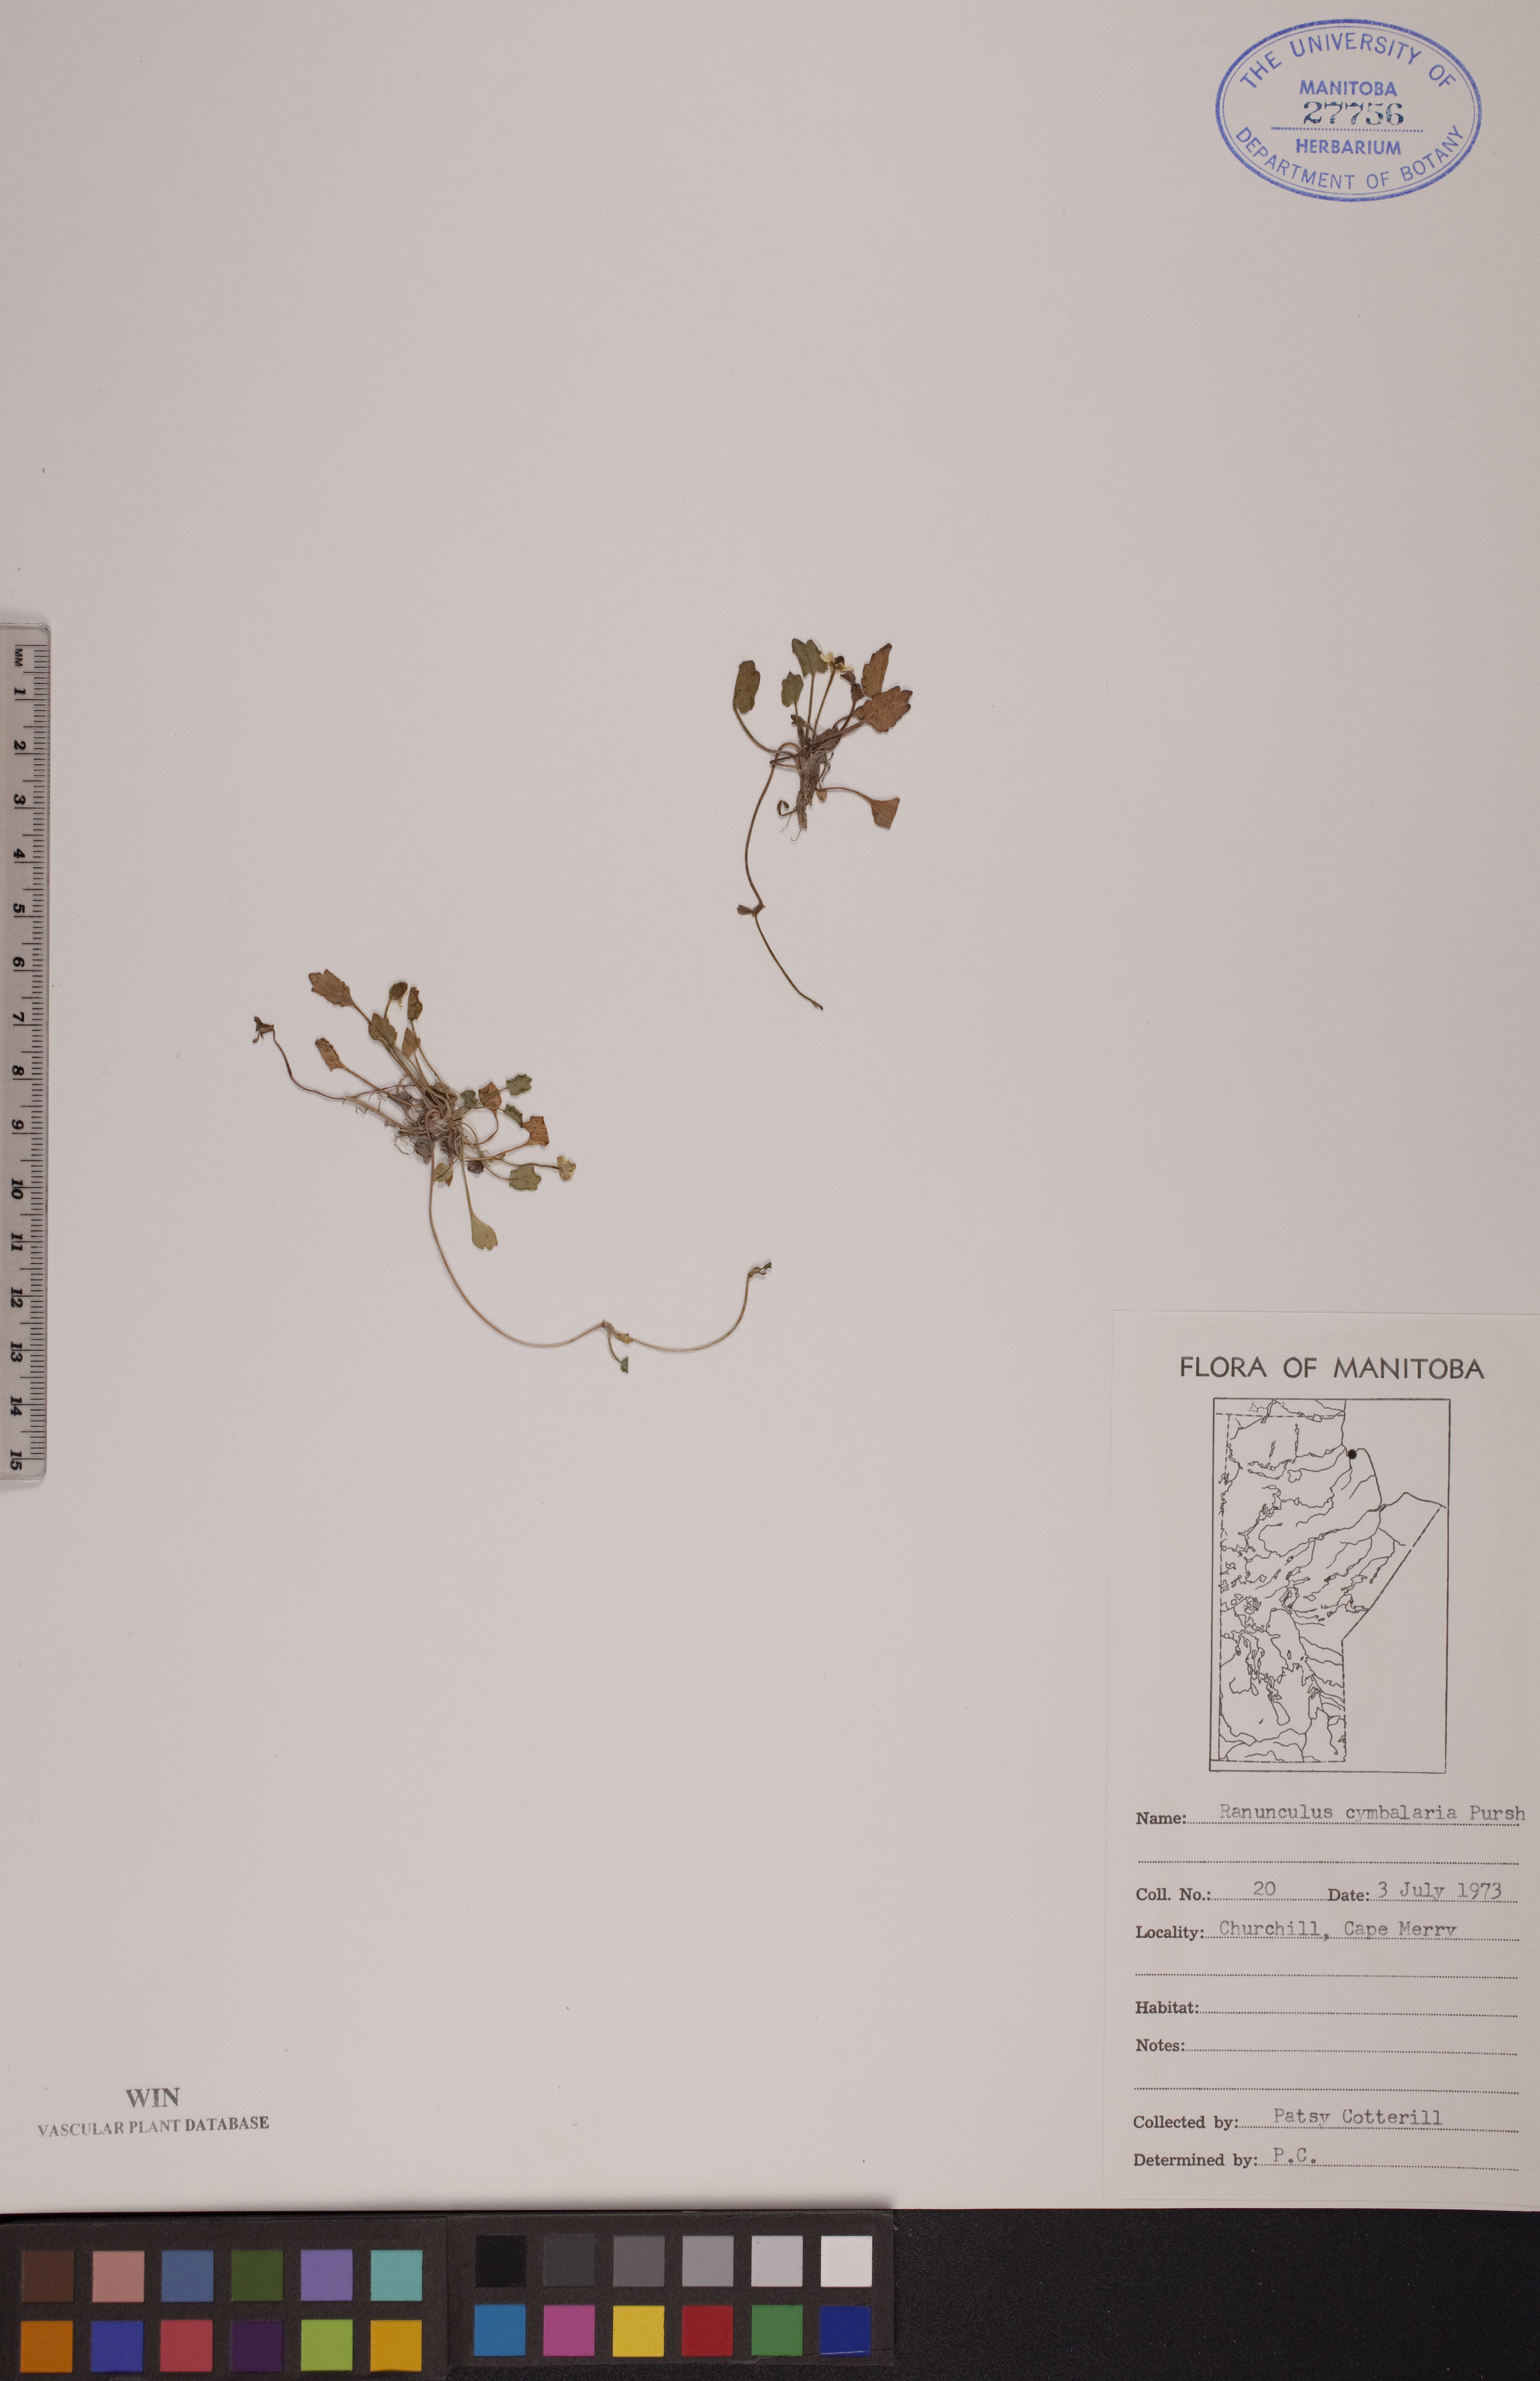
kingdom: Plantae
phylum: Tracheophyta
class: Magnoliopsida
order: Ranunculales
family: Ranunculaceae
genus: Halerpestes
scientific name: Halerpestes cymbalaria
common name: Seaside crowfoot
